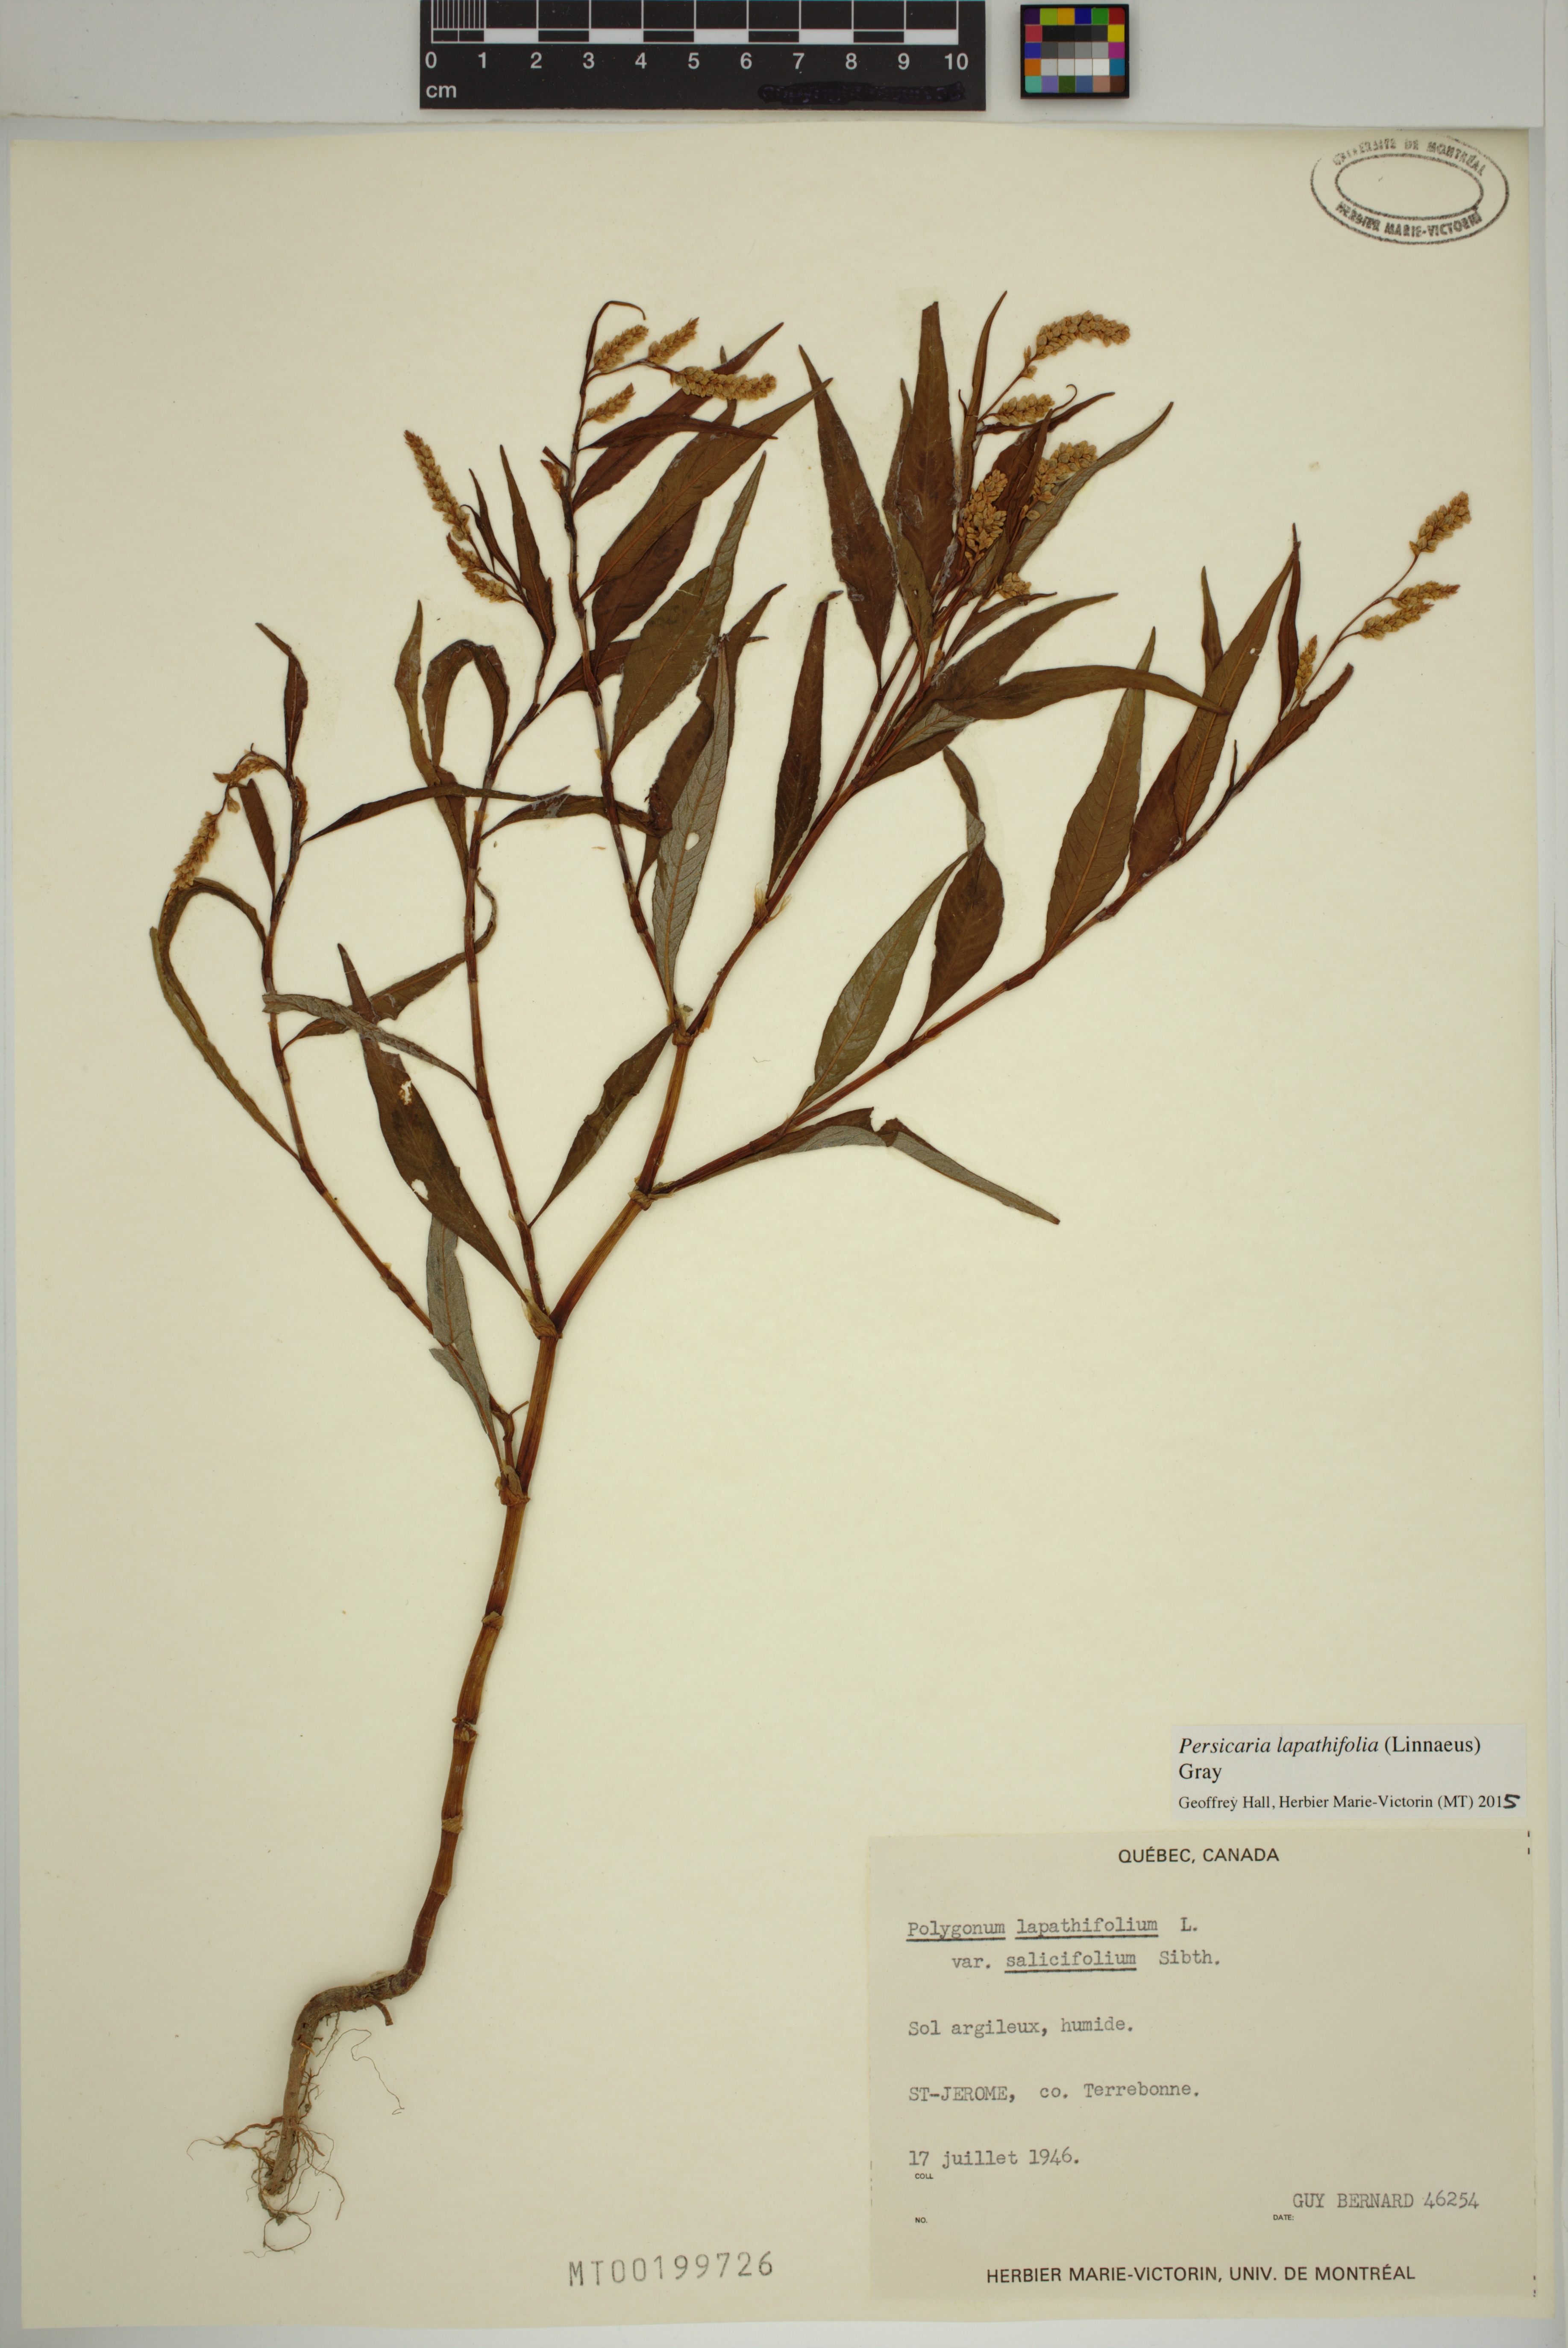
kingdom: Plantae
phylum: Tracheophyta
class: Magnoliopsida
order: Caryophyllales
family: Polygonaceae
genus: Persicaria
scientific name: Persicaria lapathifolia
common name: Curlytop knotweed
